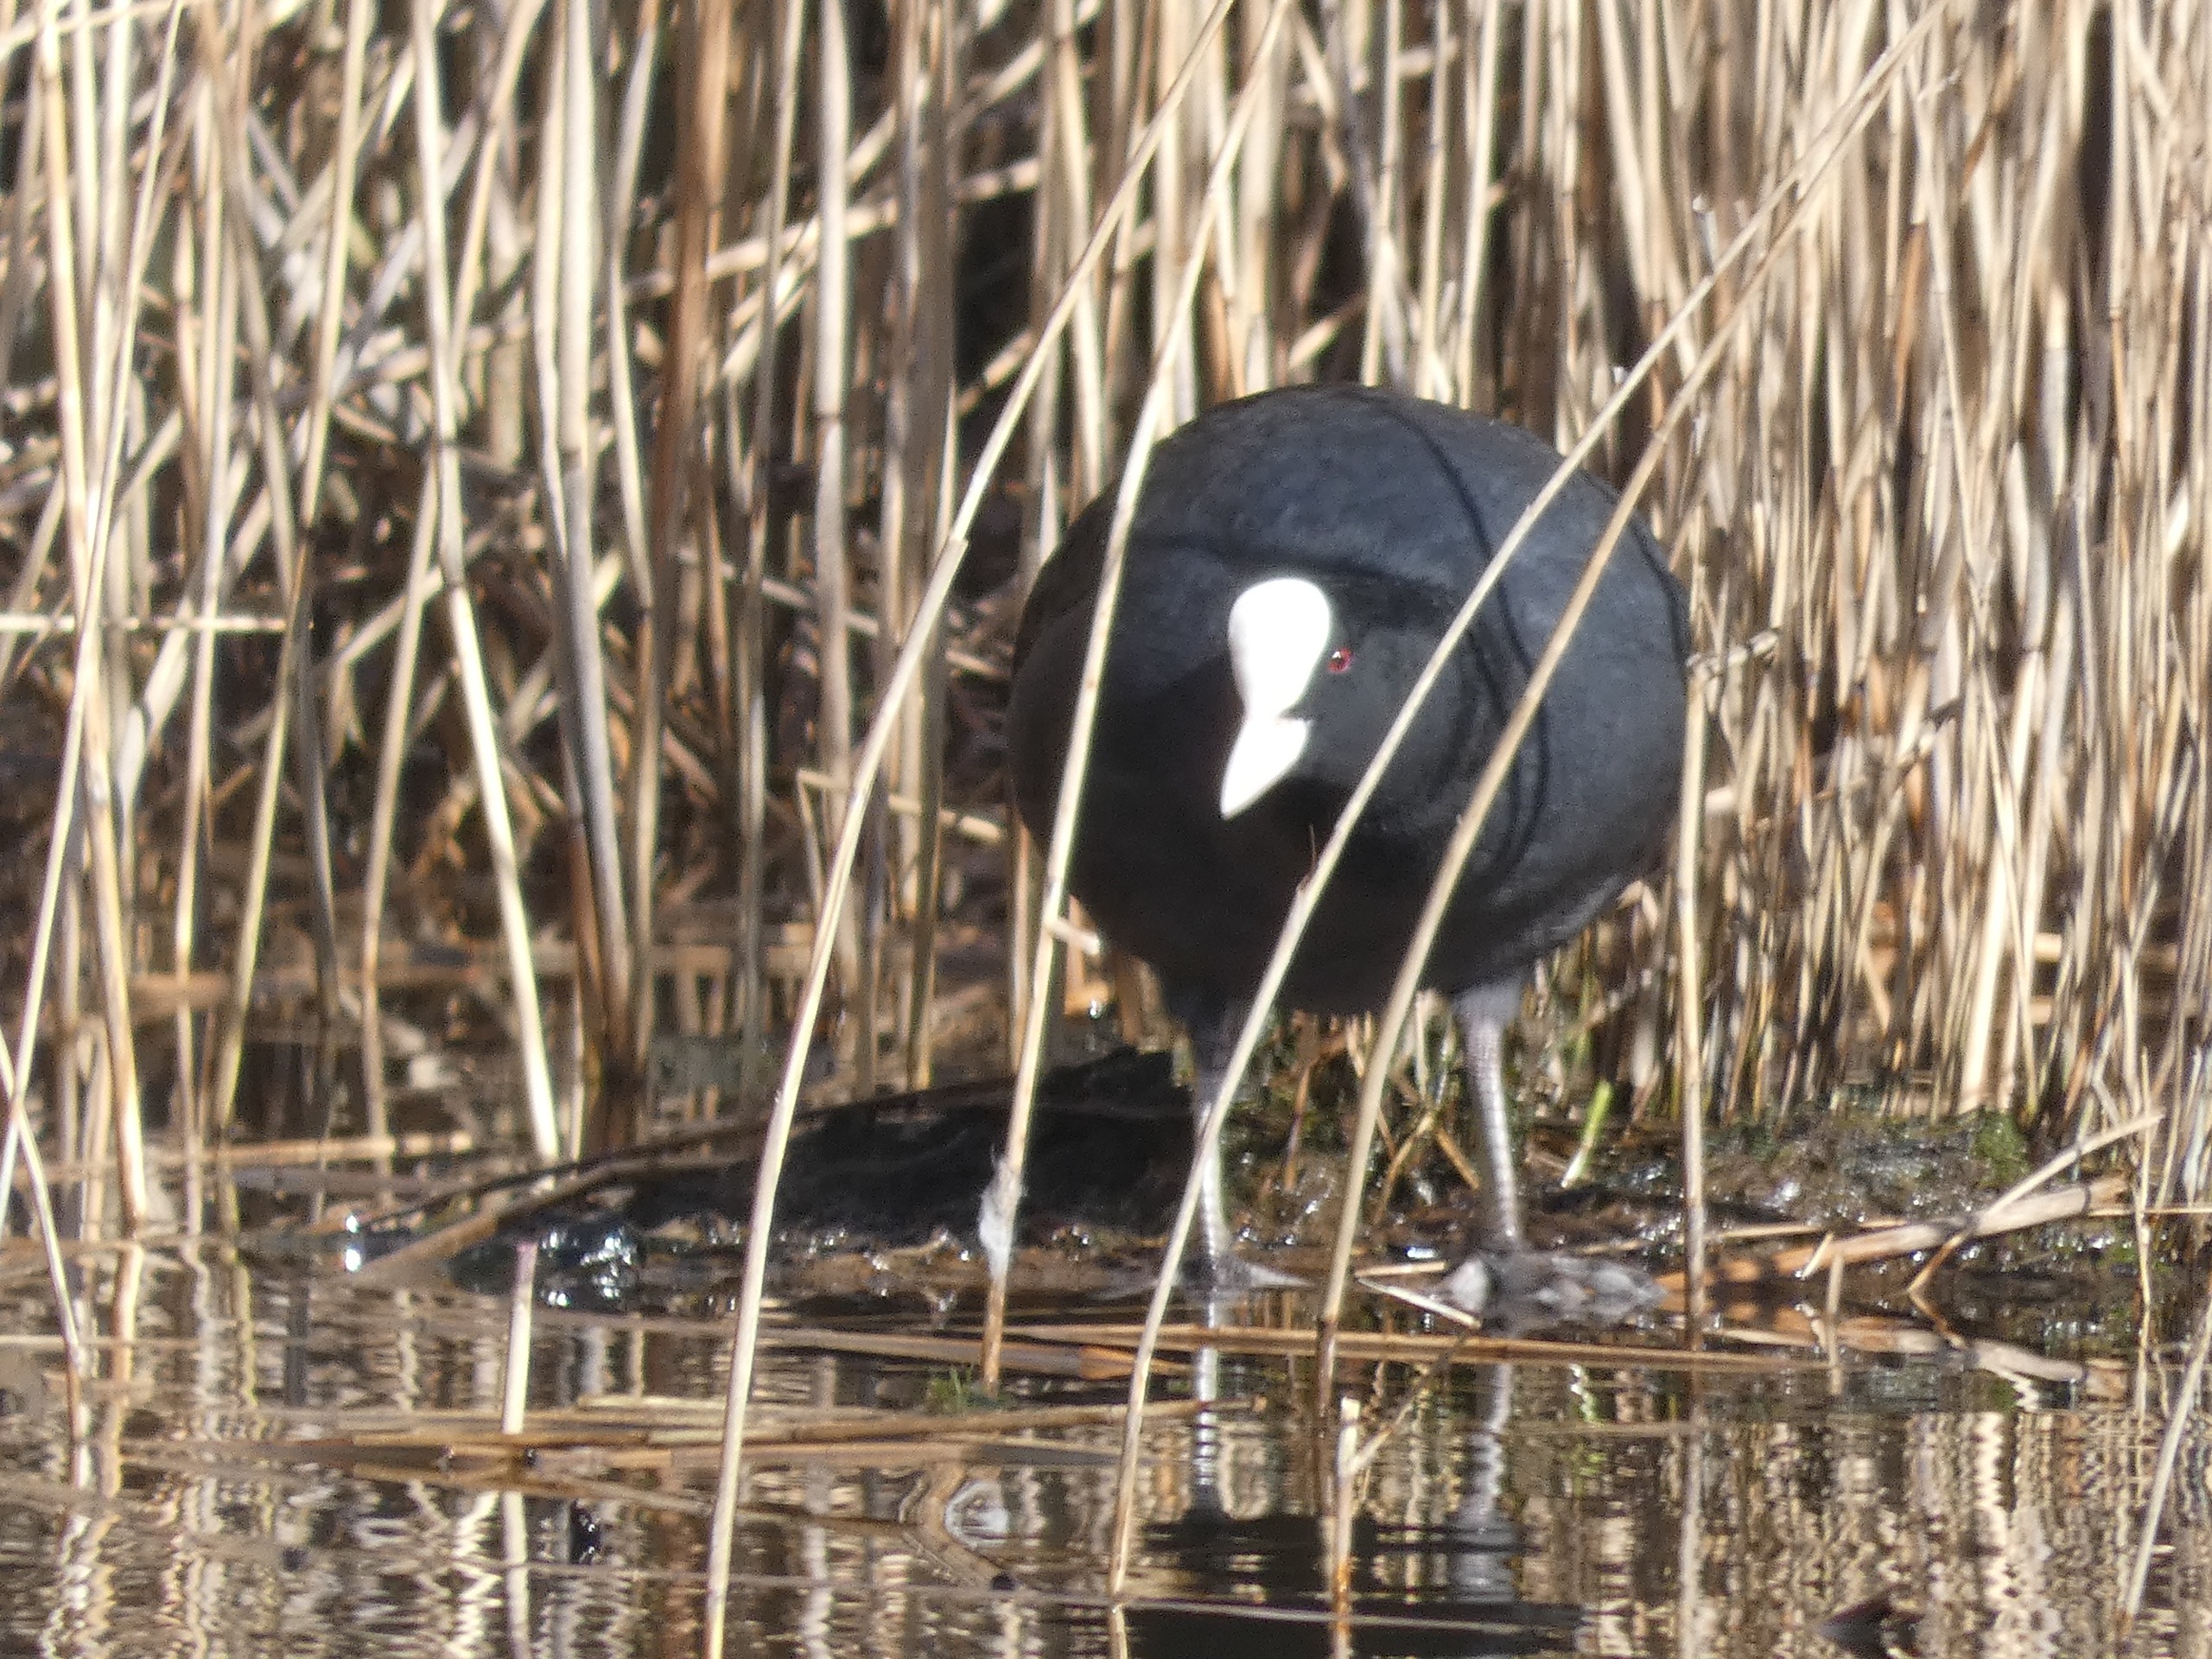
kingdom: Animalia
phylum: Chordata
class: Aves
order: Gruiformes
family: Rallidae
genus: Fulica
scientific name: Fulica atra
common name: Blishøne
